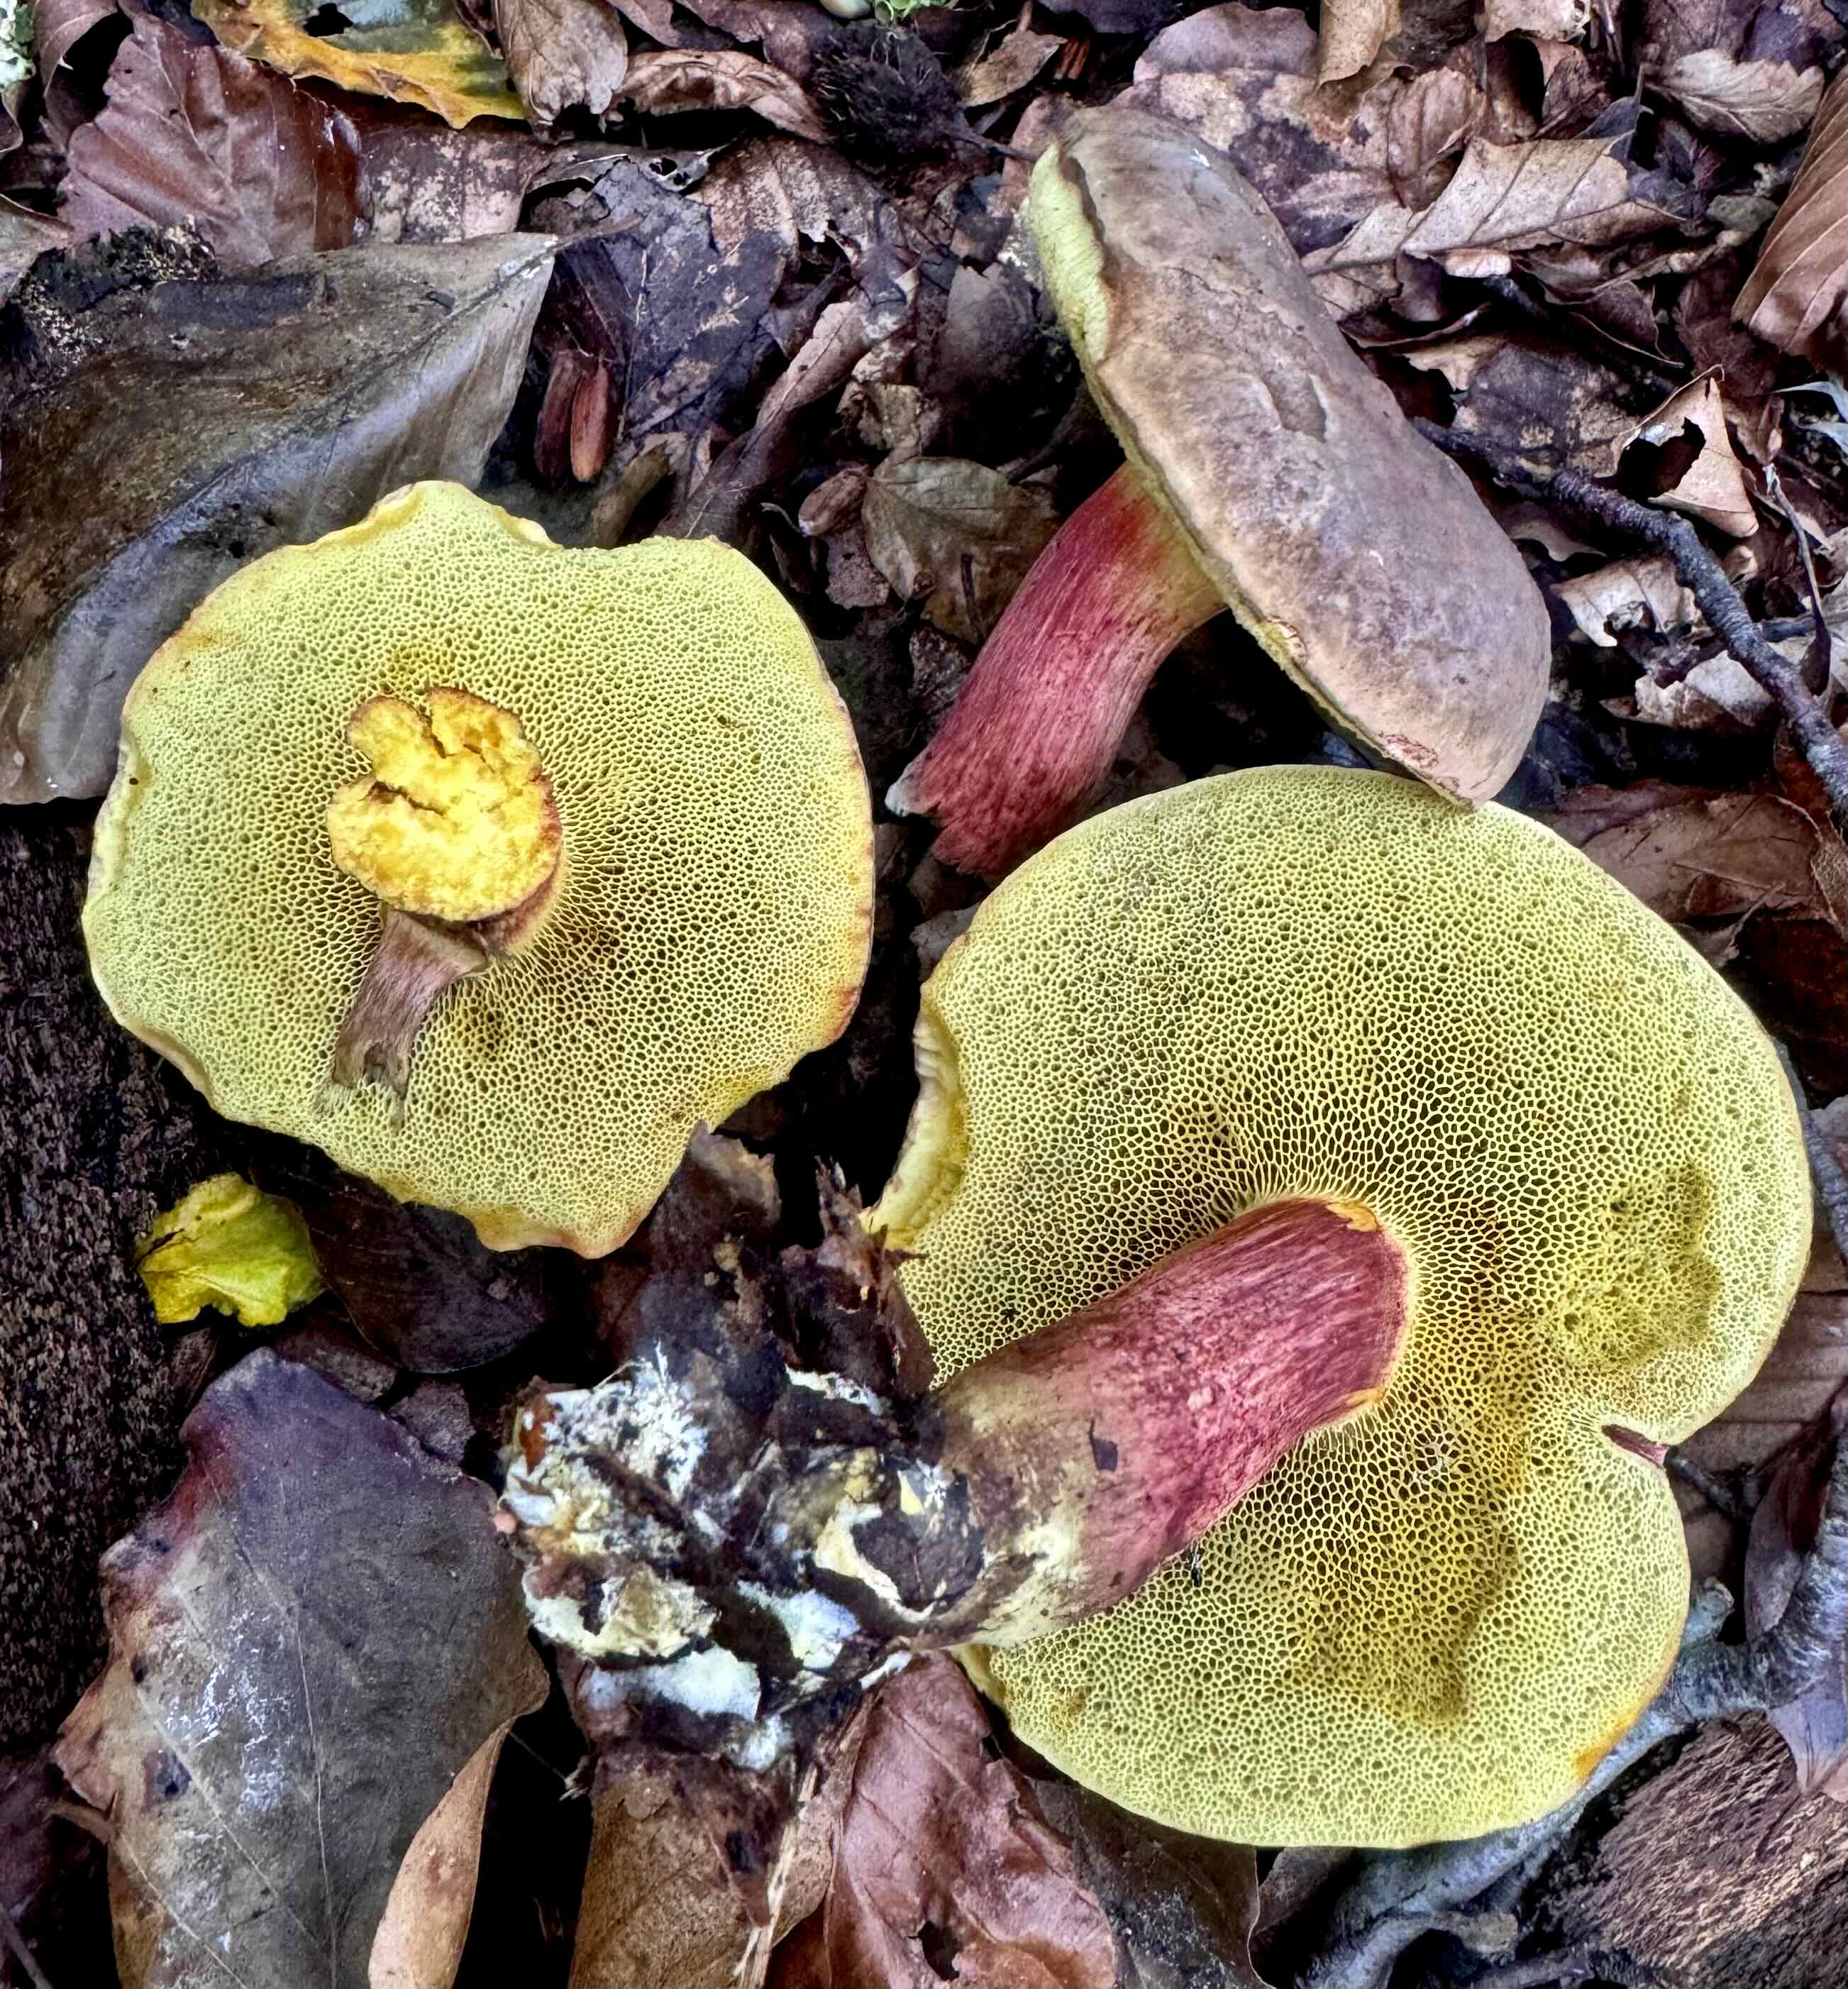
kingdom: Fungi
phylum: Basidiomycota
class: Agaricomycetes
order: Boletales
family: Boletaceae
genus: Xerocomellus
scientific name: Xerocomellus pruinatus
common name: dugget rørhat
